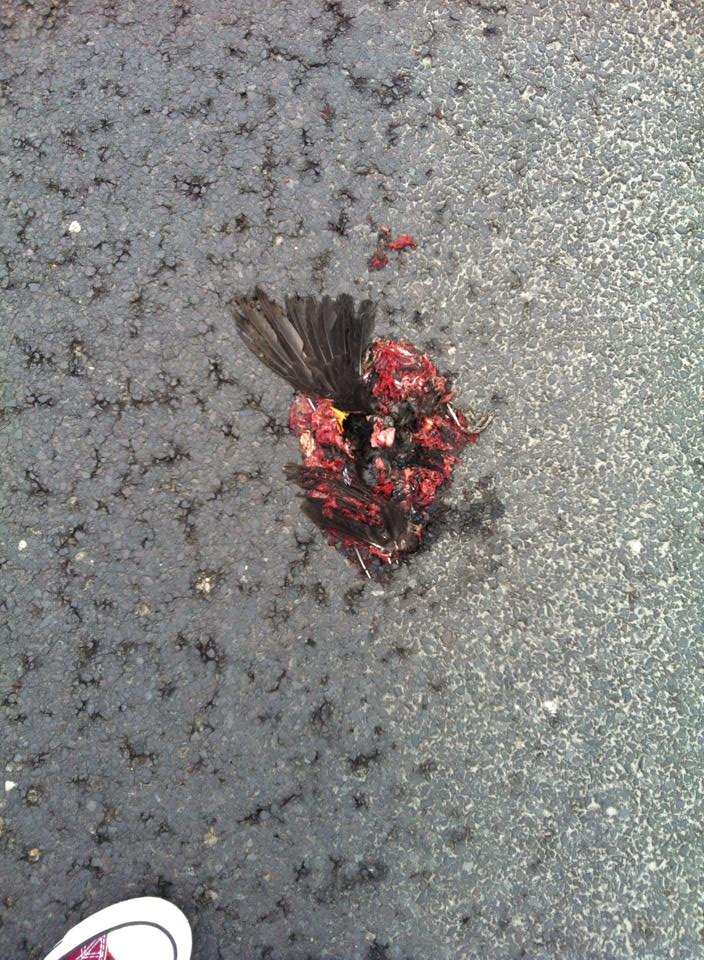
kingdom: Animalia
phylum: Chordata
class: Aves
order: Passeriformes
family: Turdidae
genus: Turdus
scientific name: Turdus merula
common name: Common blackbird
